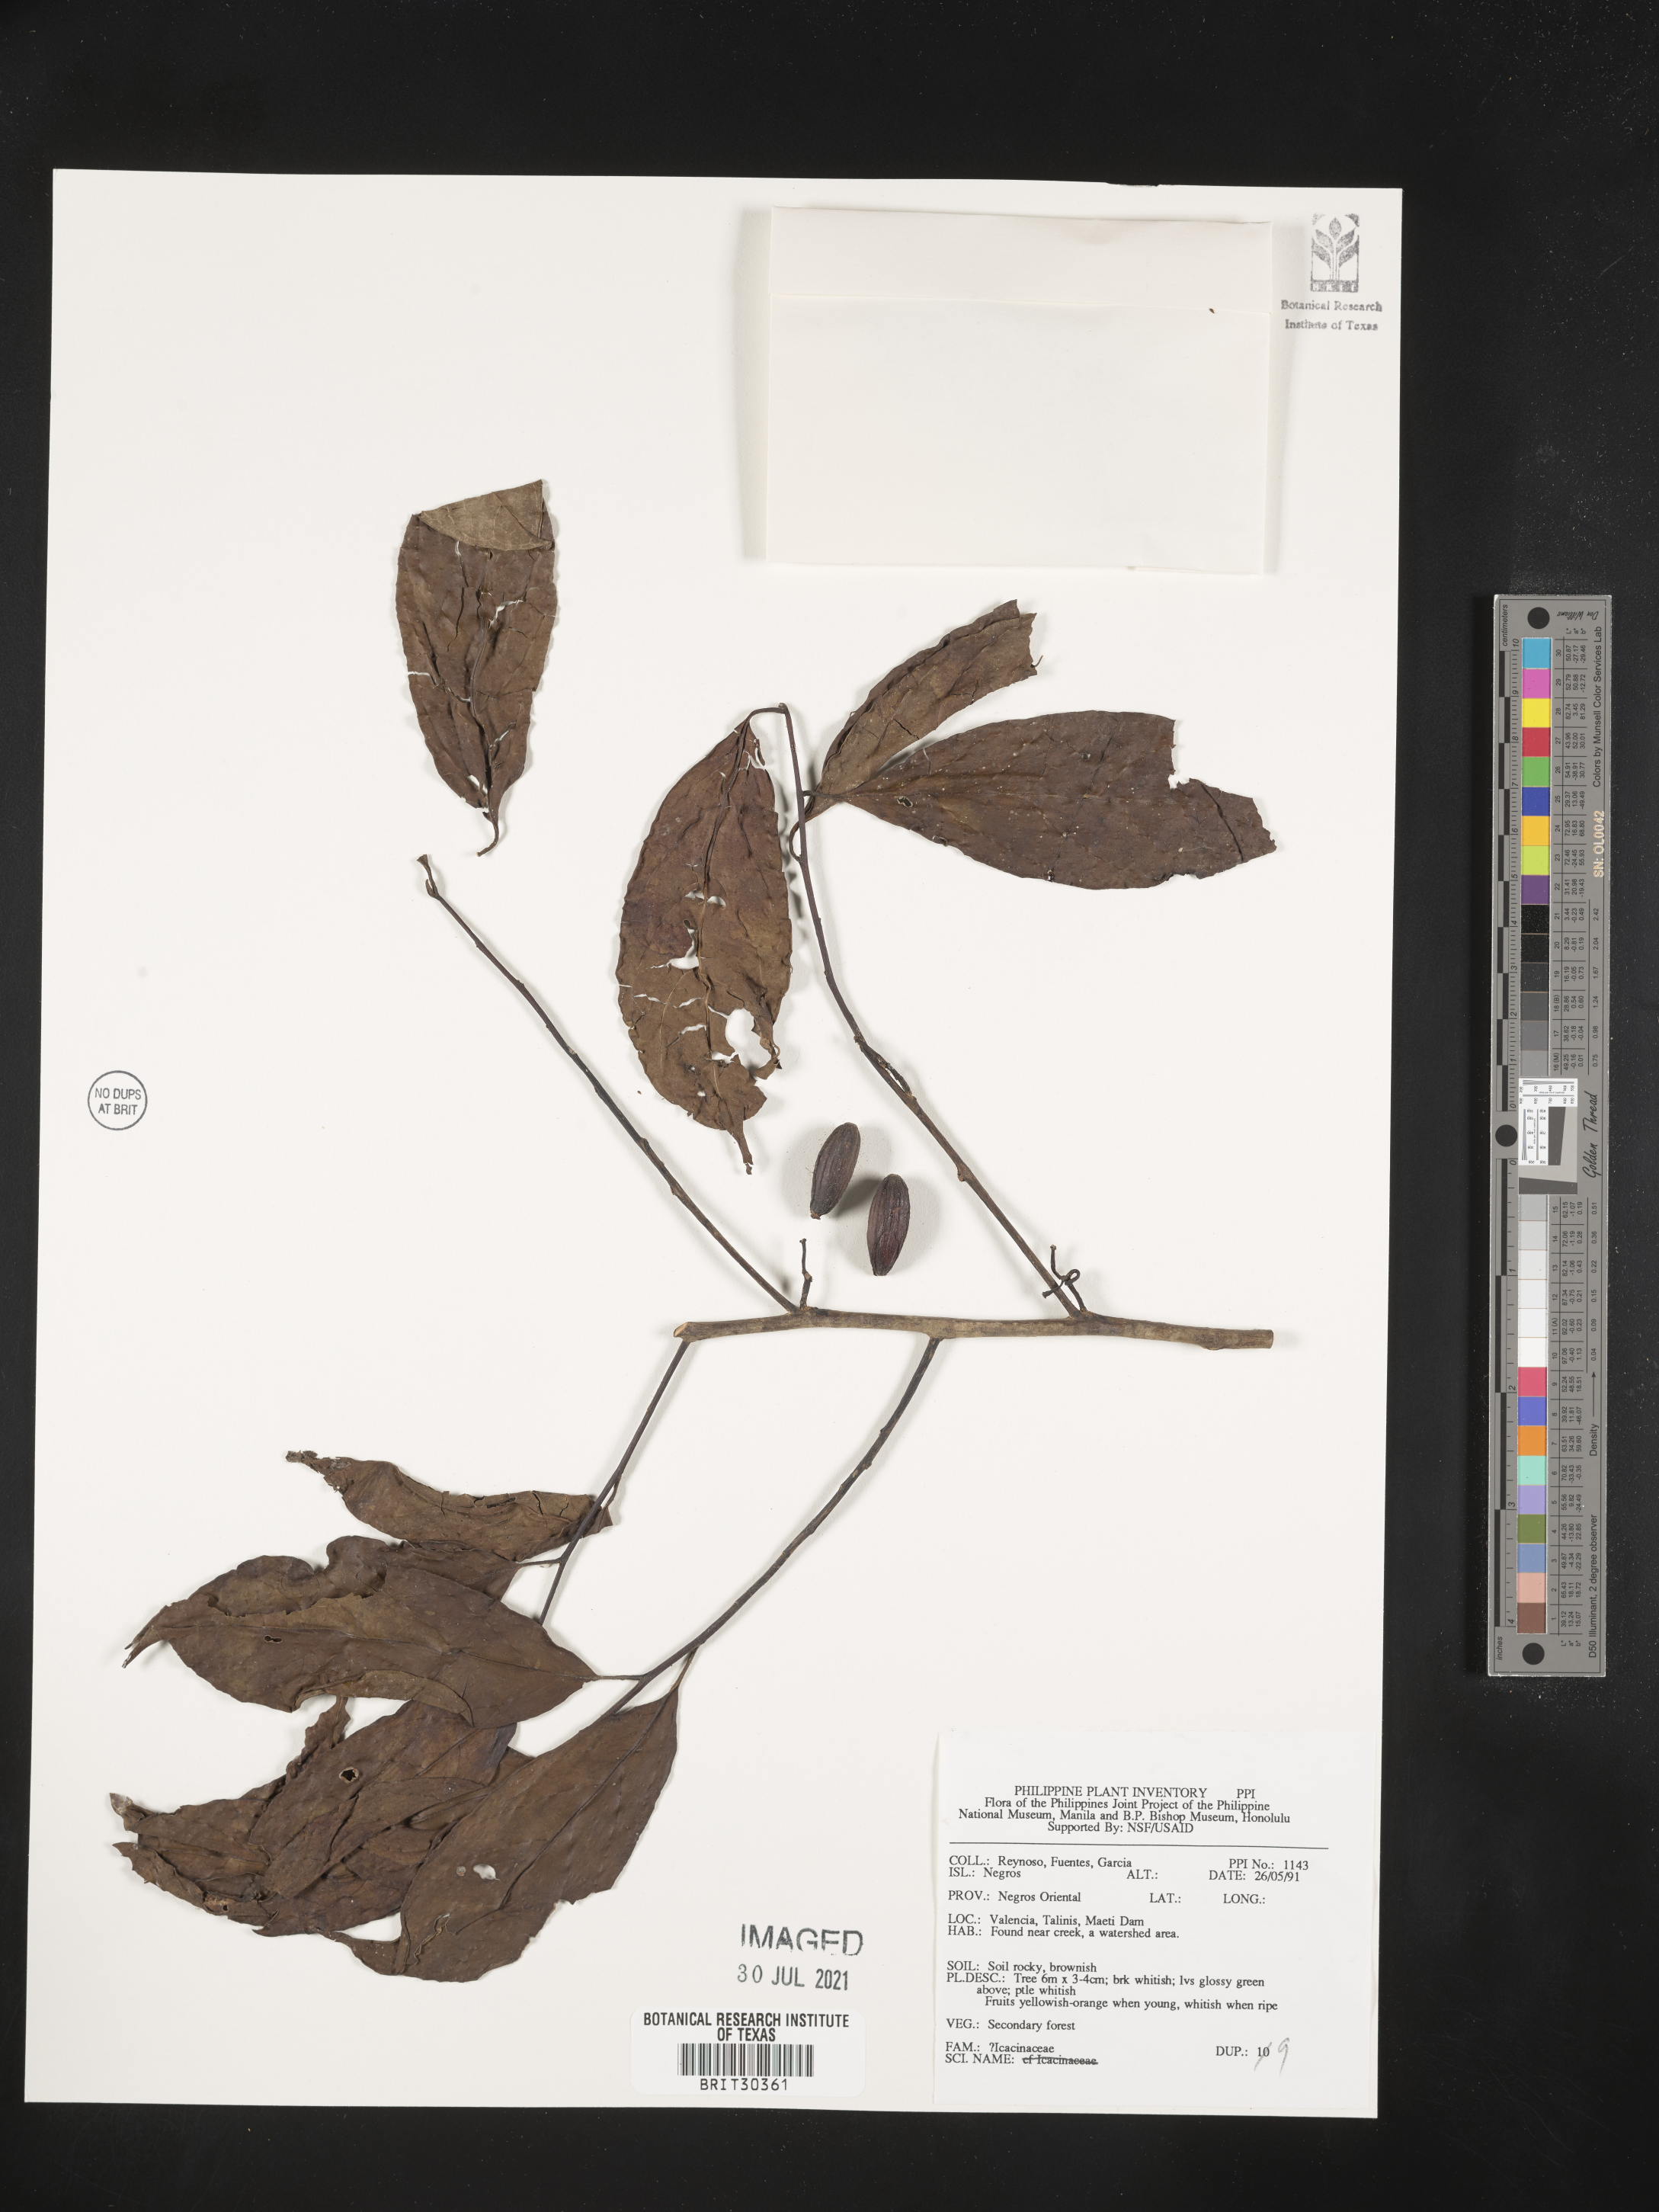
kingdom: Plantae
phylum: Tracheophyta
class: Magnoliopsida
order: Icacinales
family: Icacinaceae
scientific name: Icacinaceae
